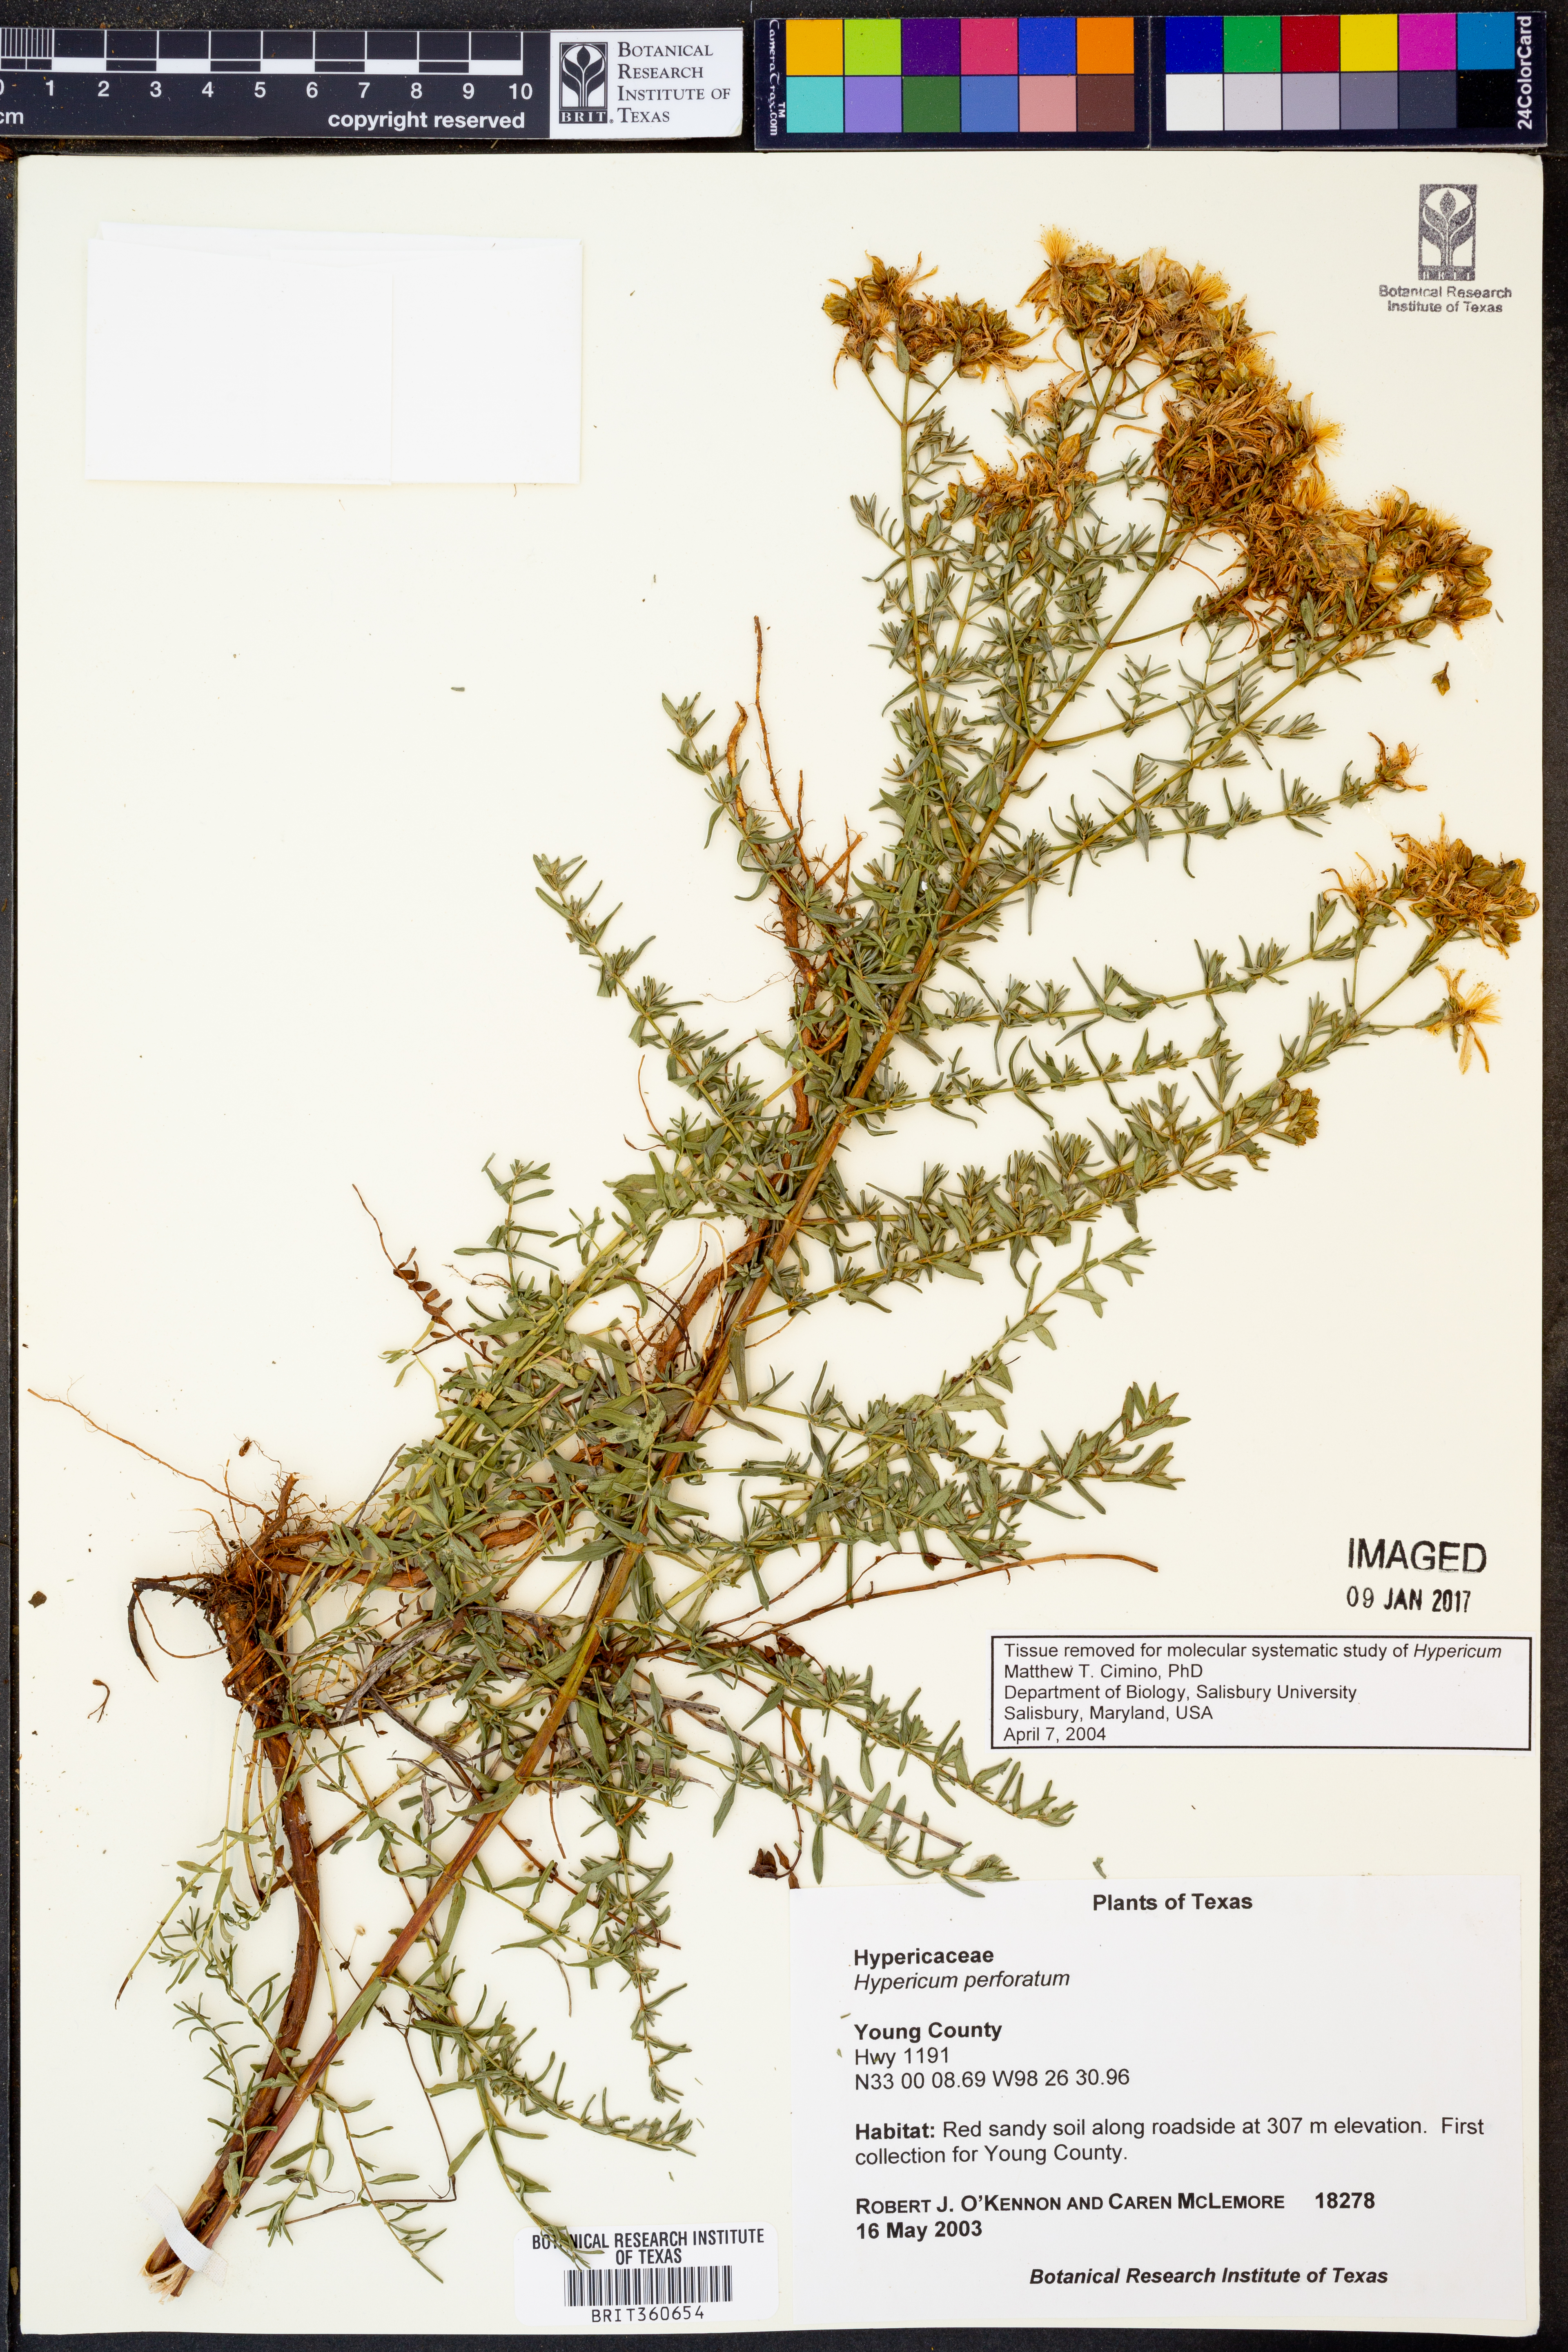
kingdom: Plantae
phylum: Tracheophyta
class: Magnoliopsida
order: Malpighiales
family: Hypericaceae
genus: Hypericum
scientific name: Hypericum perforatum
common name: Common st. johnswort
